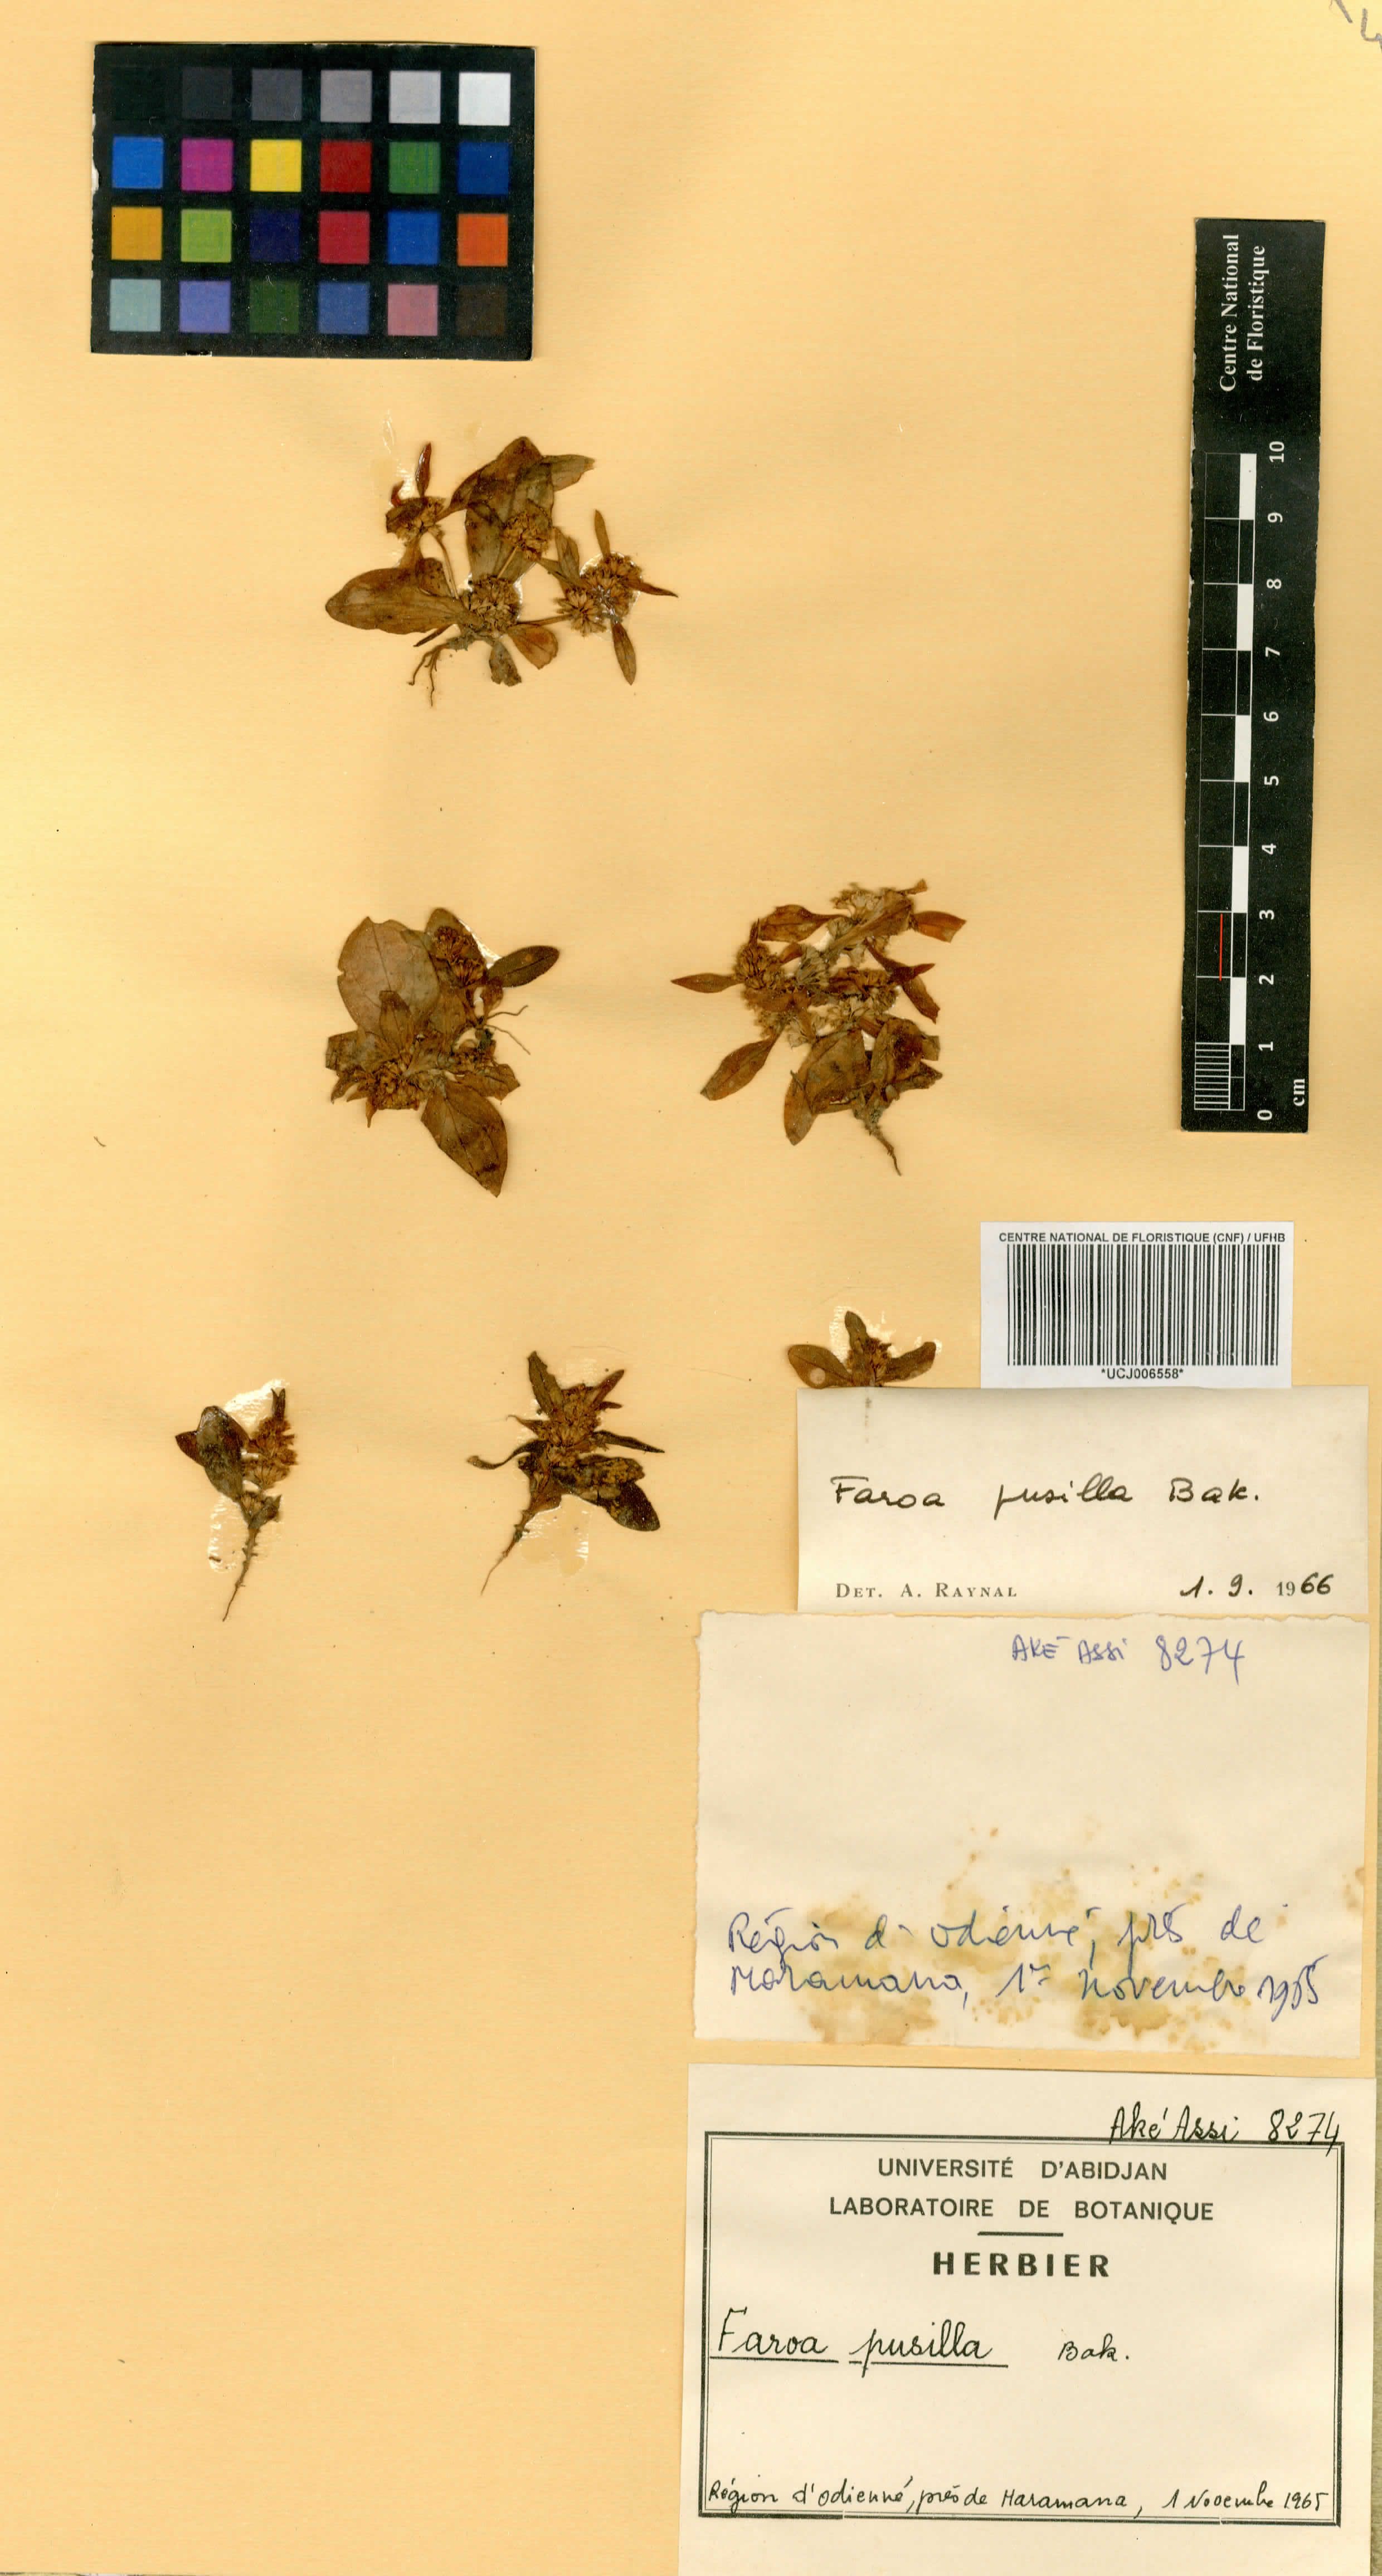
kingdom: Plantae
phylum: Tracheophyta
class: Magnoliopsida
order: Gentianales
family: Gentianaceae
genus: Faroa
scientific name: Faroa pusilla
